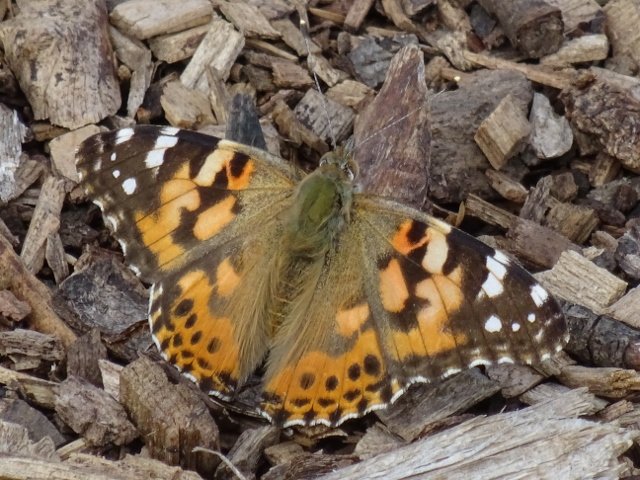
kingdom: Animalia
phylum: Arthropoda
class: Insecta
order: Lepidoptera
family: Nymphalidae
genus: Vanessa
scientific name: Vanessa cardui
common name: Painted Lady
